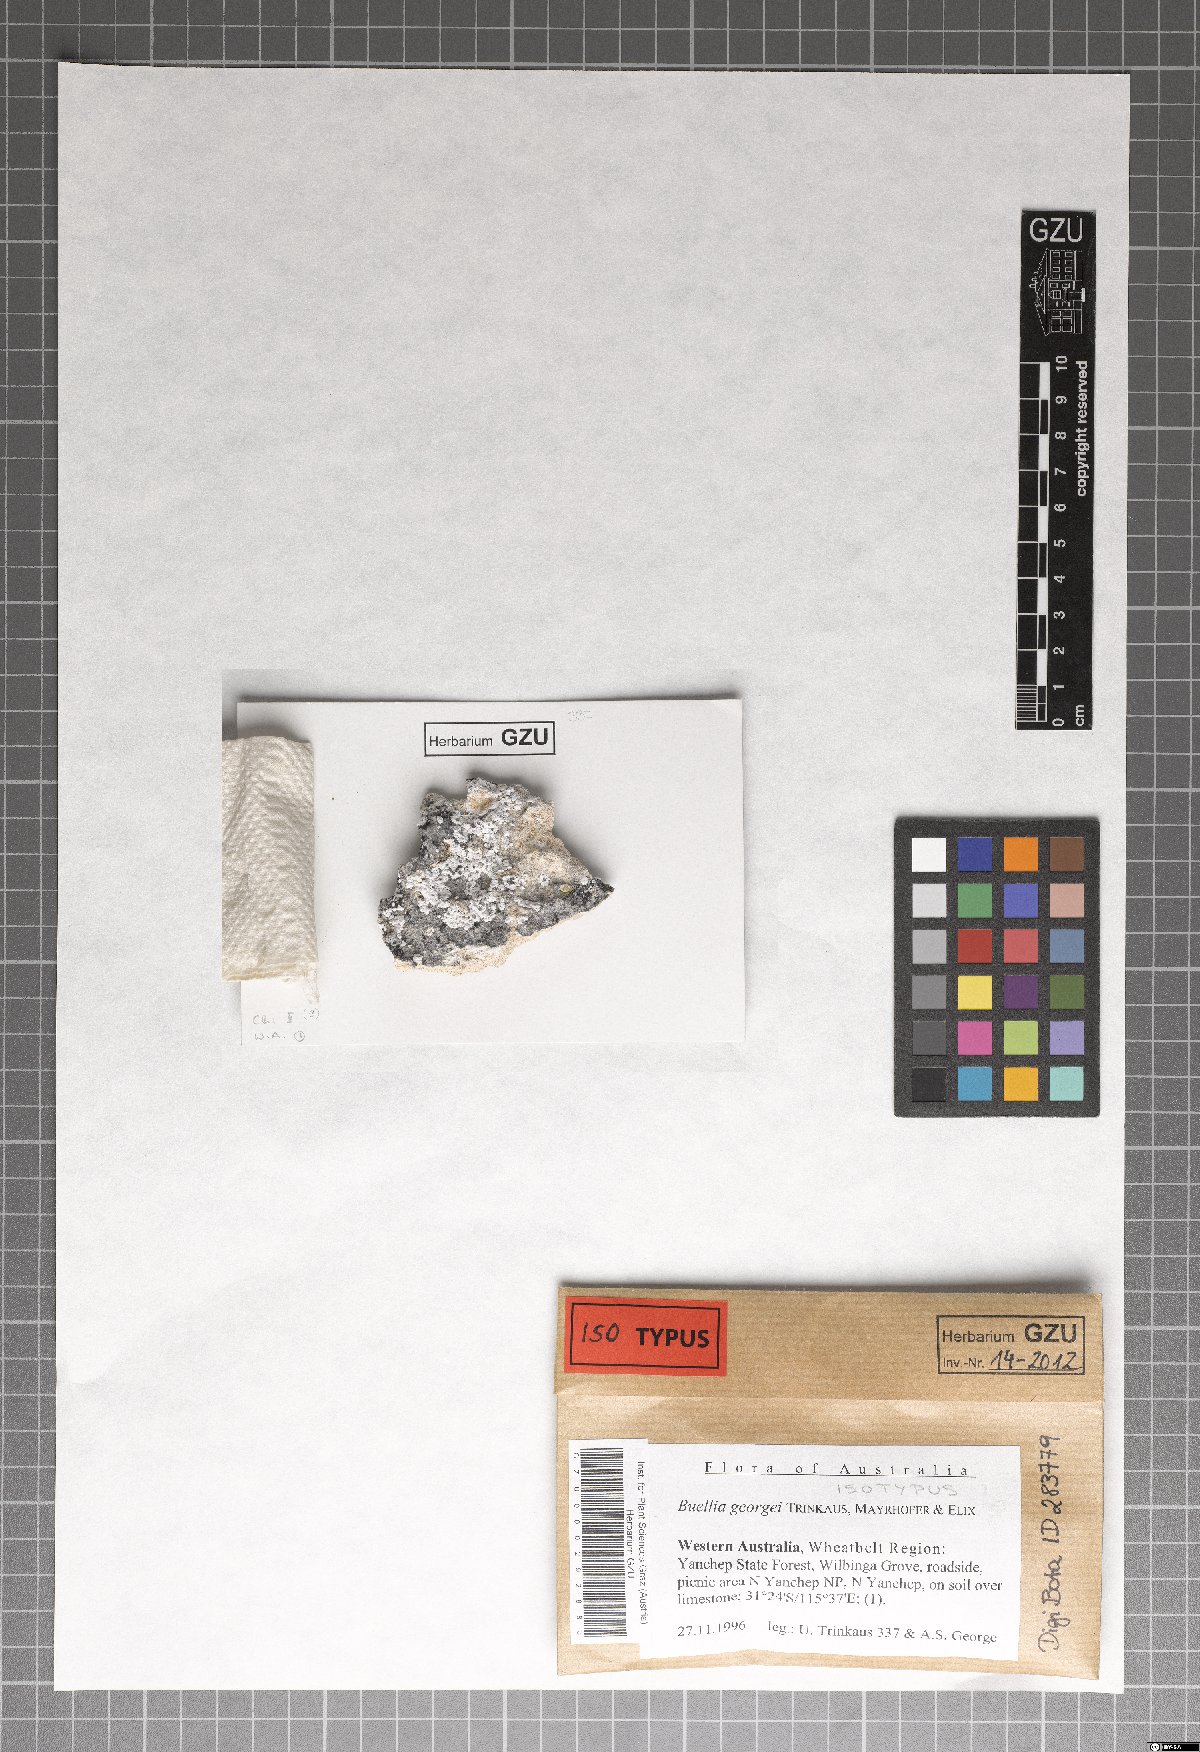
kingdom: Fungi
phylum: Ascomycota
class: Lecanoromycetes
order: Caliciales
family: Caliciaceae
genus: Buellia
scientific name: Buellia georgei
